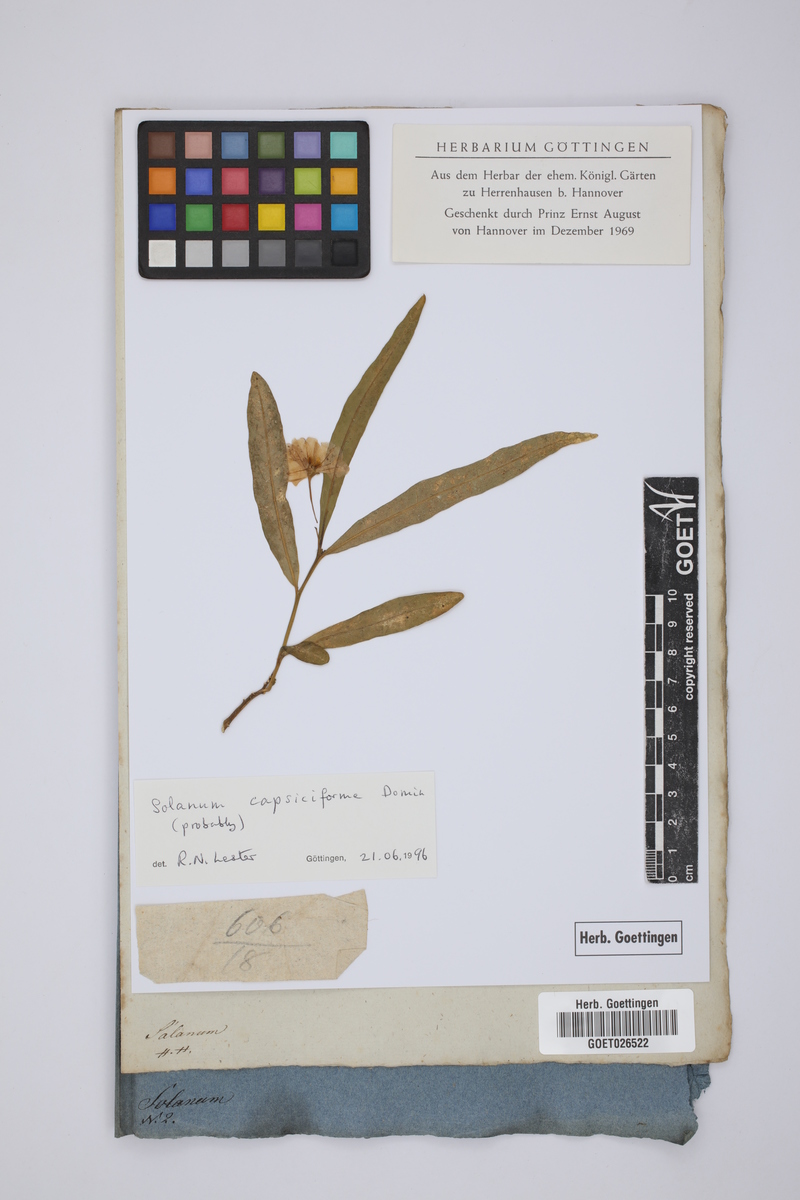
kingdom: Plantae
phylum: Tracheophyta
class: Magnoliopsida
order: Solanales
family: Solanaceae
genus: Solanum
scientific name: Solanum capsiciforme
